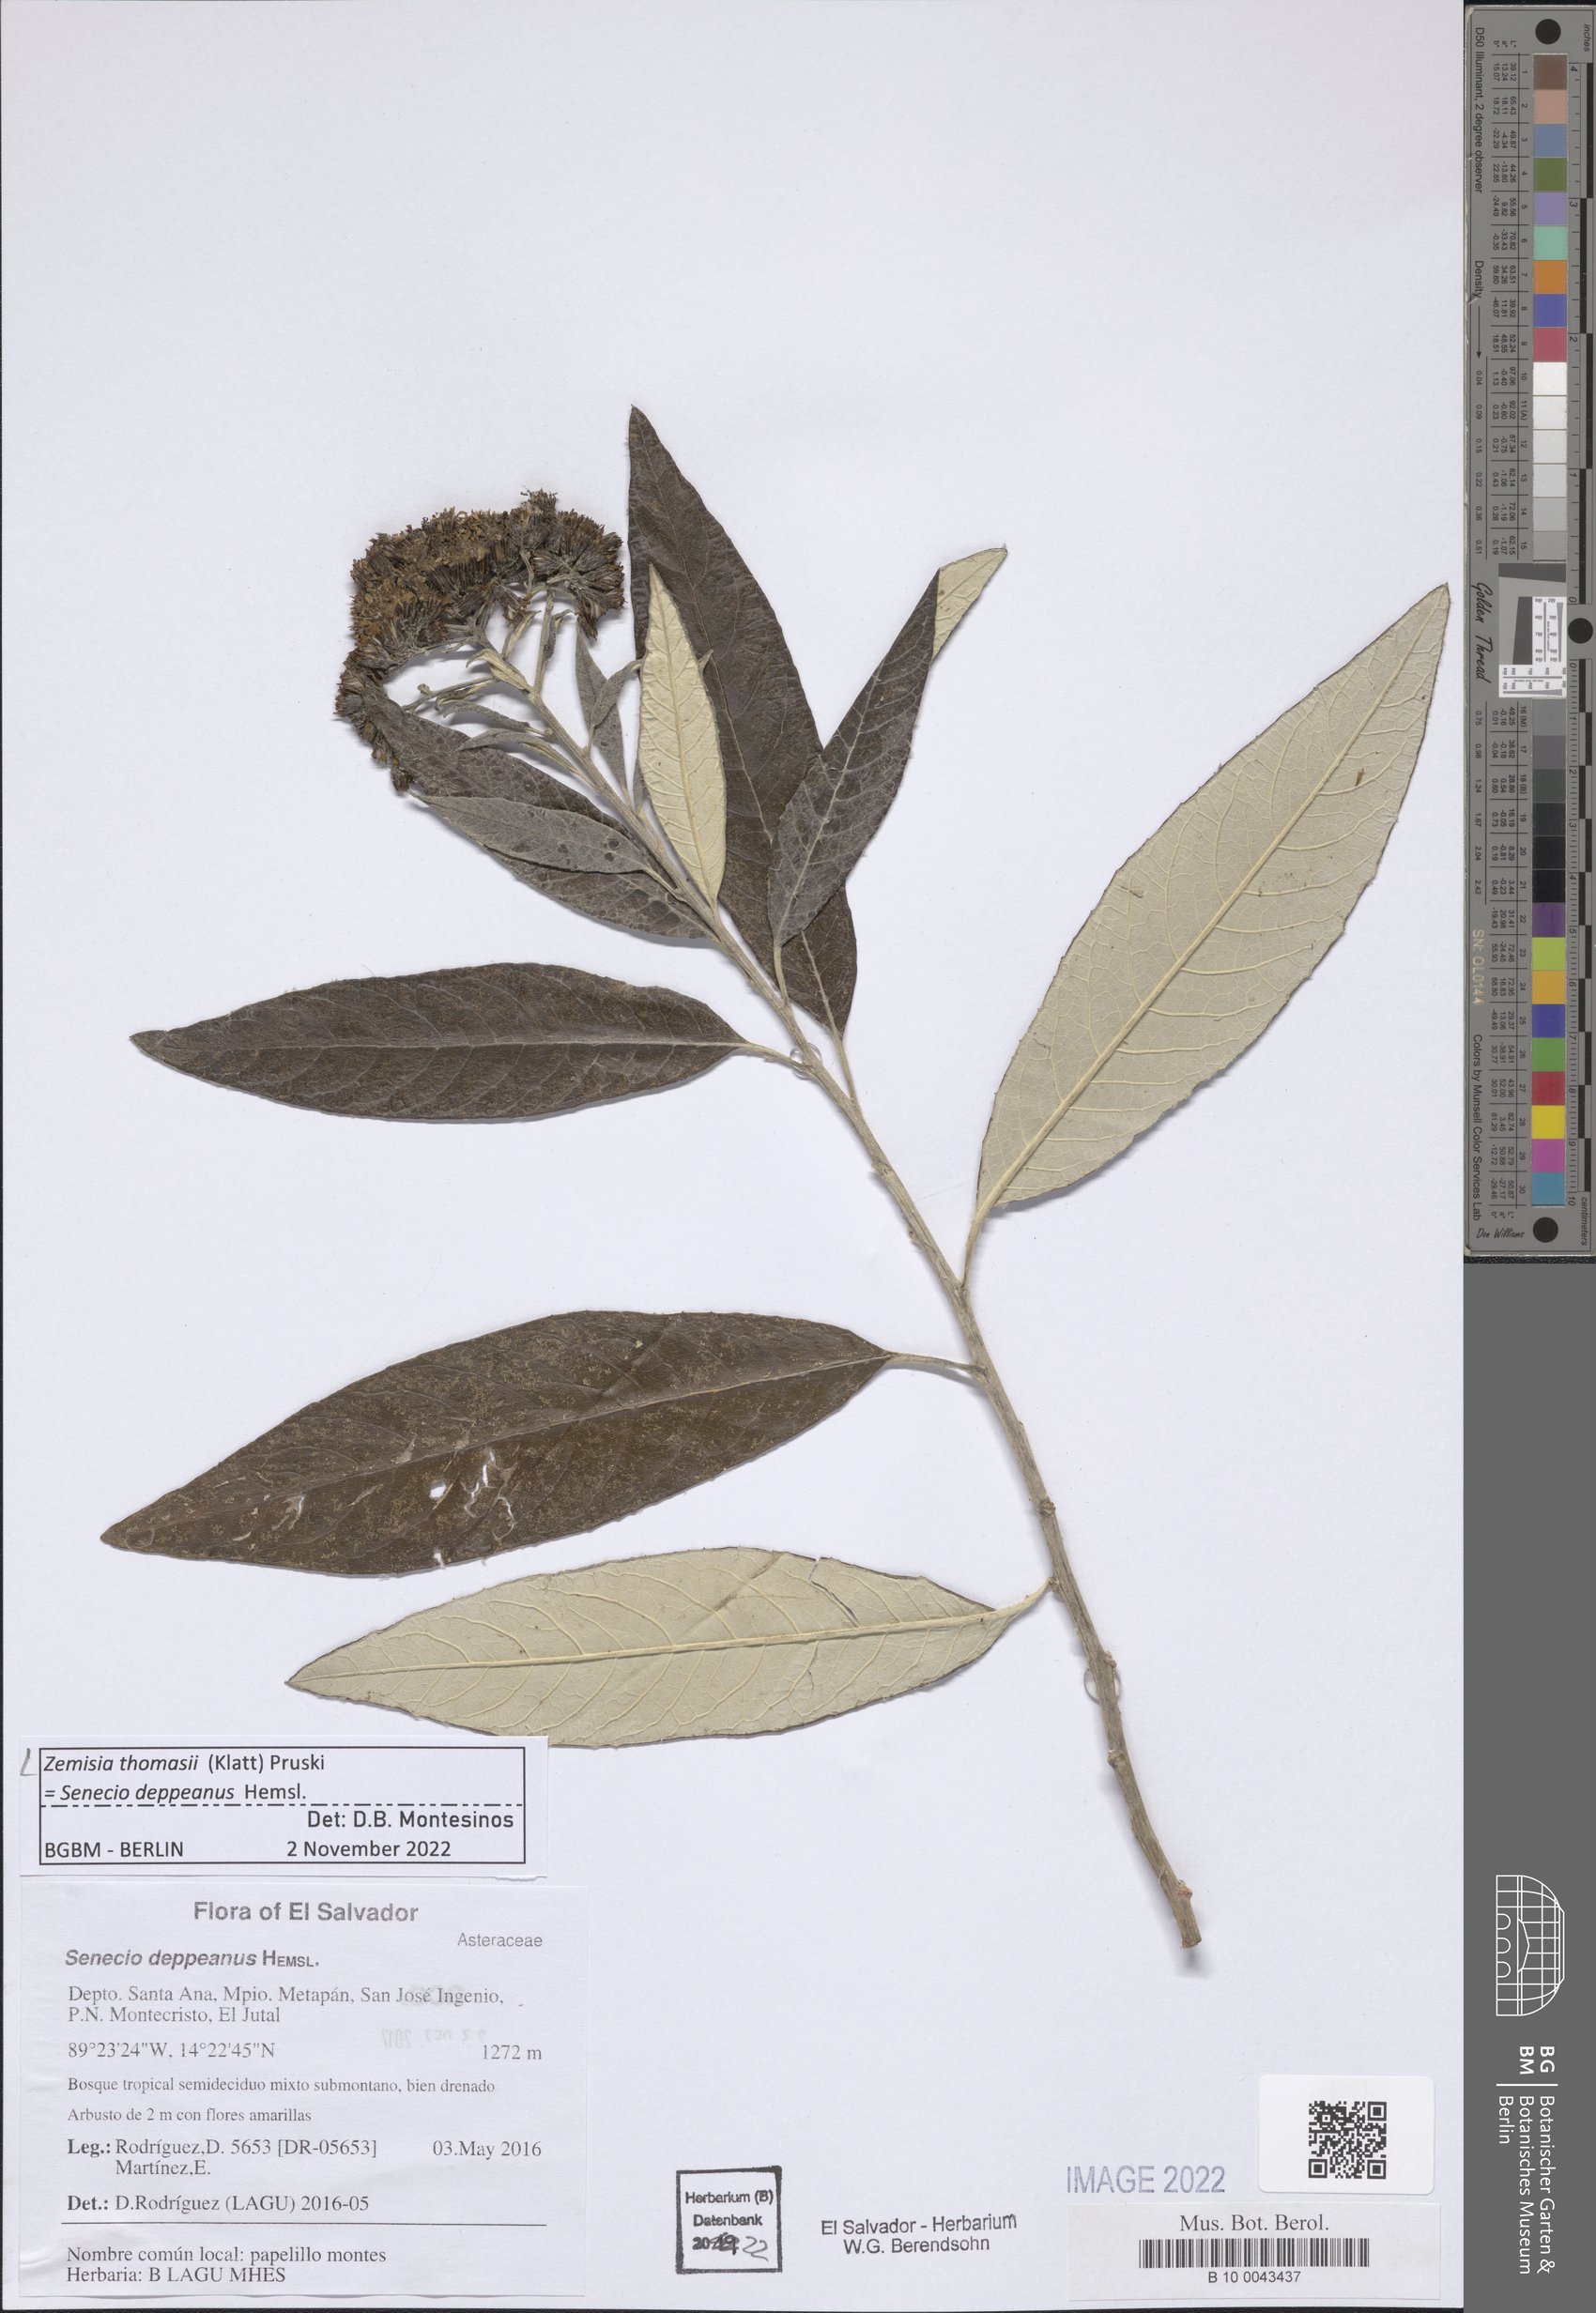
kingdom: Plantae
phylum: Tracheophyta
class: Magnoliopsida
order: Asterales
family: Asteraceae
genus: Zemisia
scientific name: Zemisia thomasii
